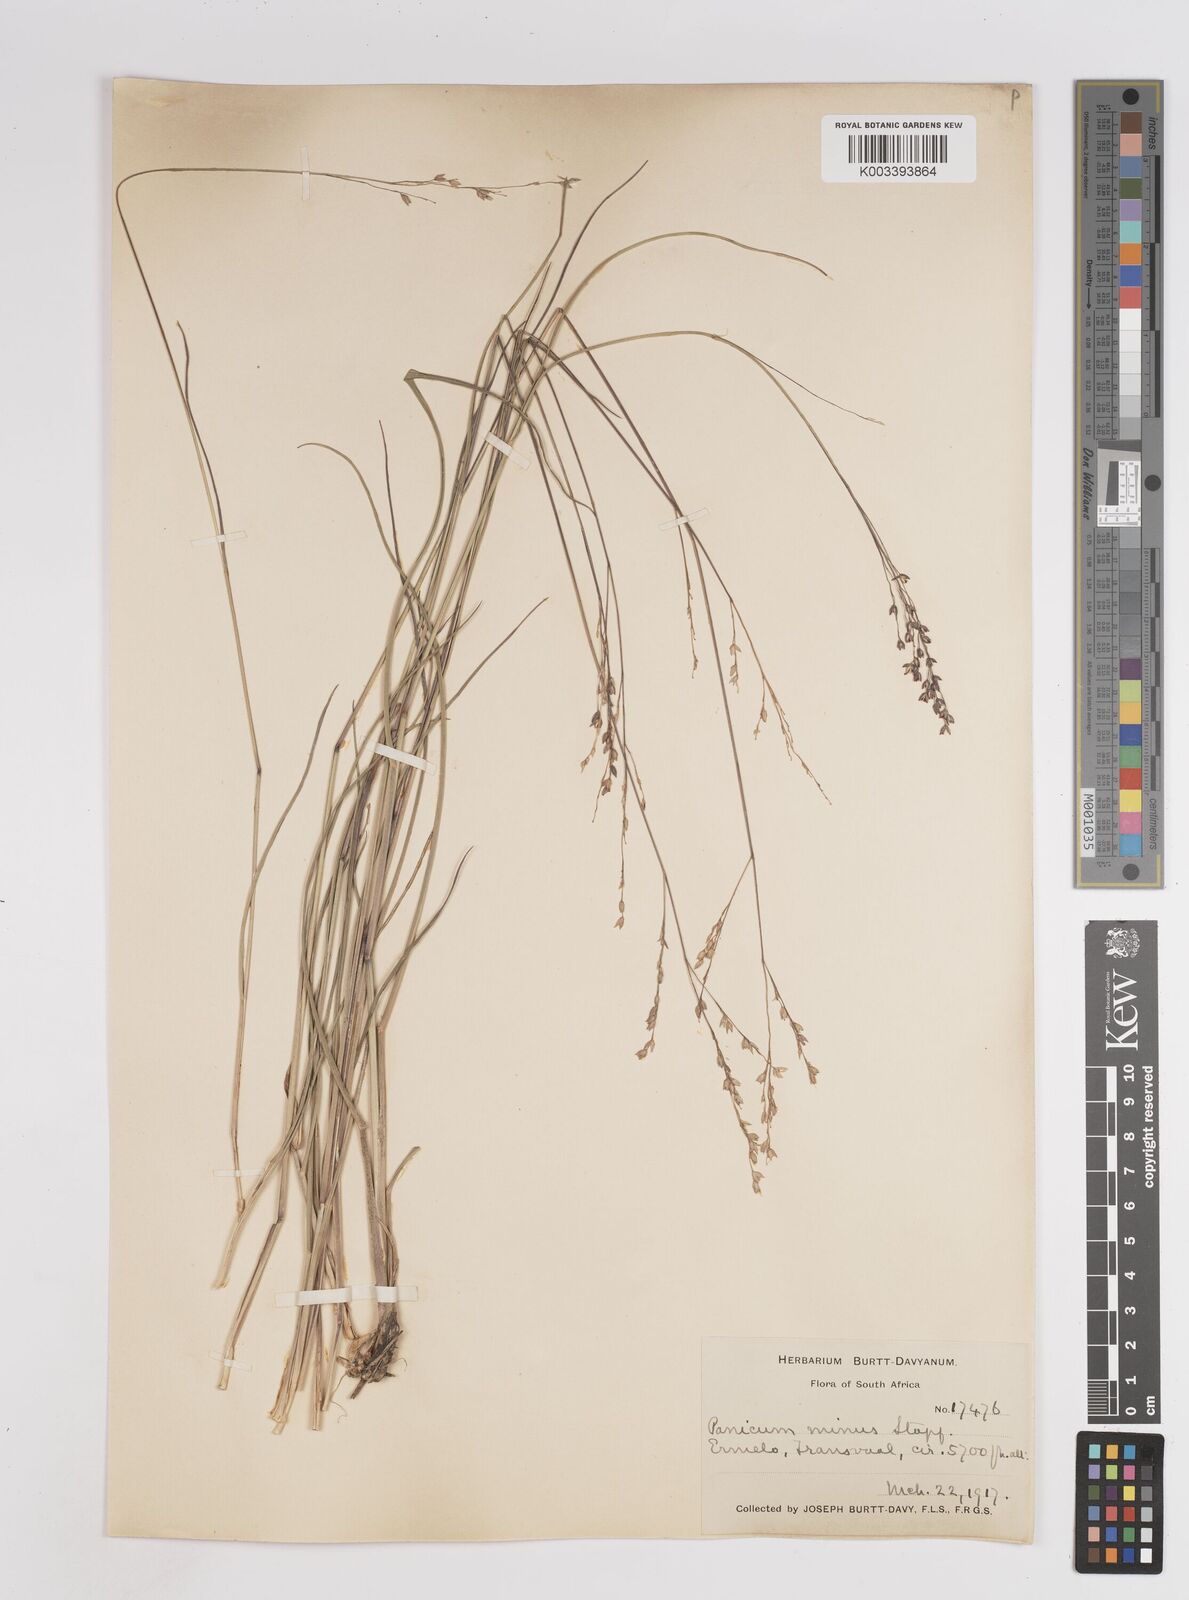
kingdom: Plantae
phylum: Tracheophyta
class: Liliopsida
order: Poales
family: Poaceae
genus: Panicum
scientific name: Panicum stapfianum
